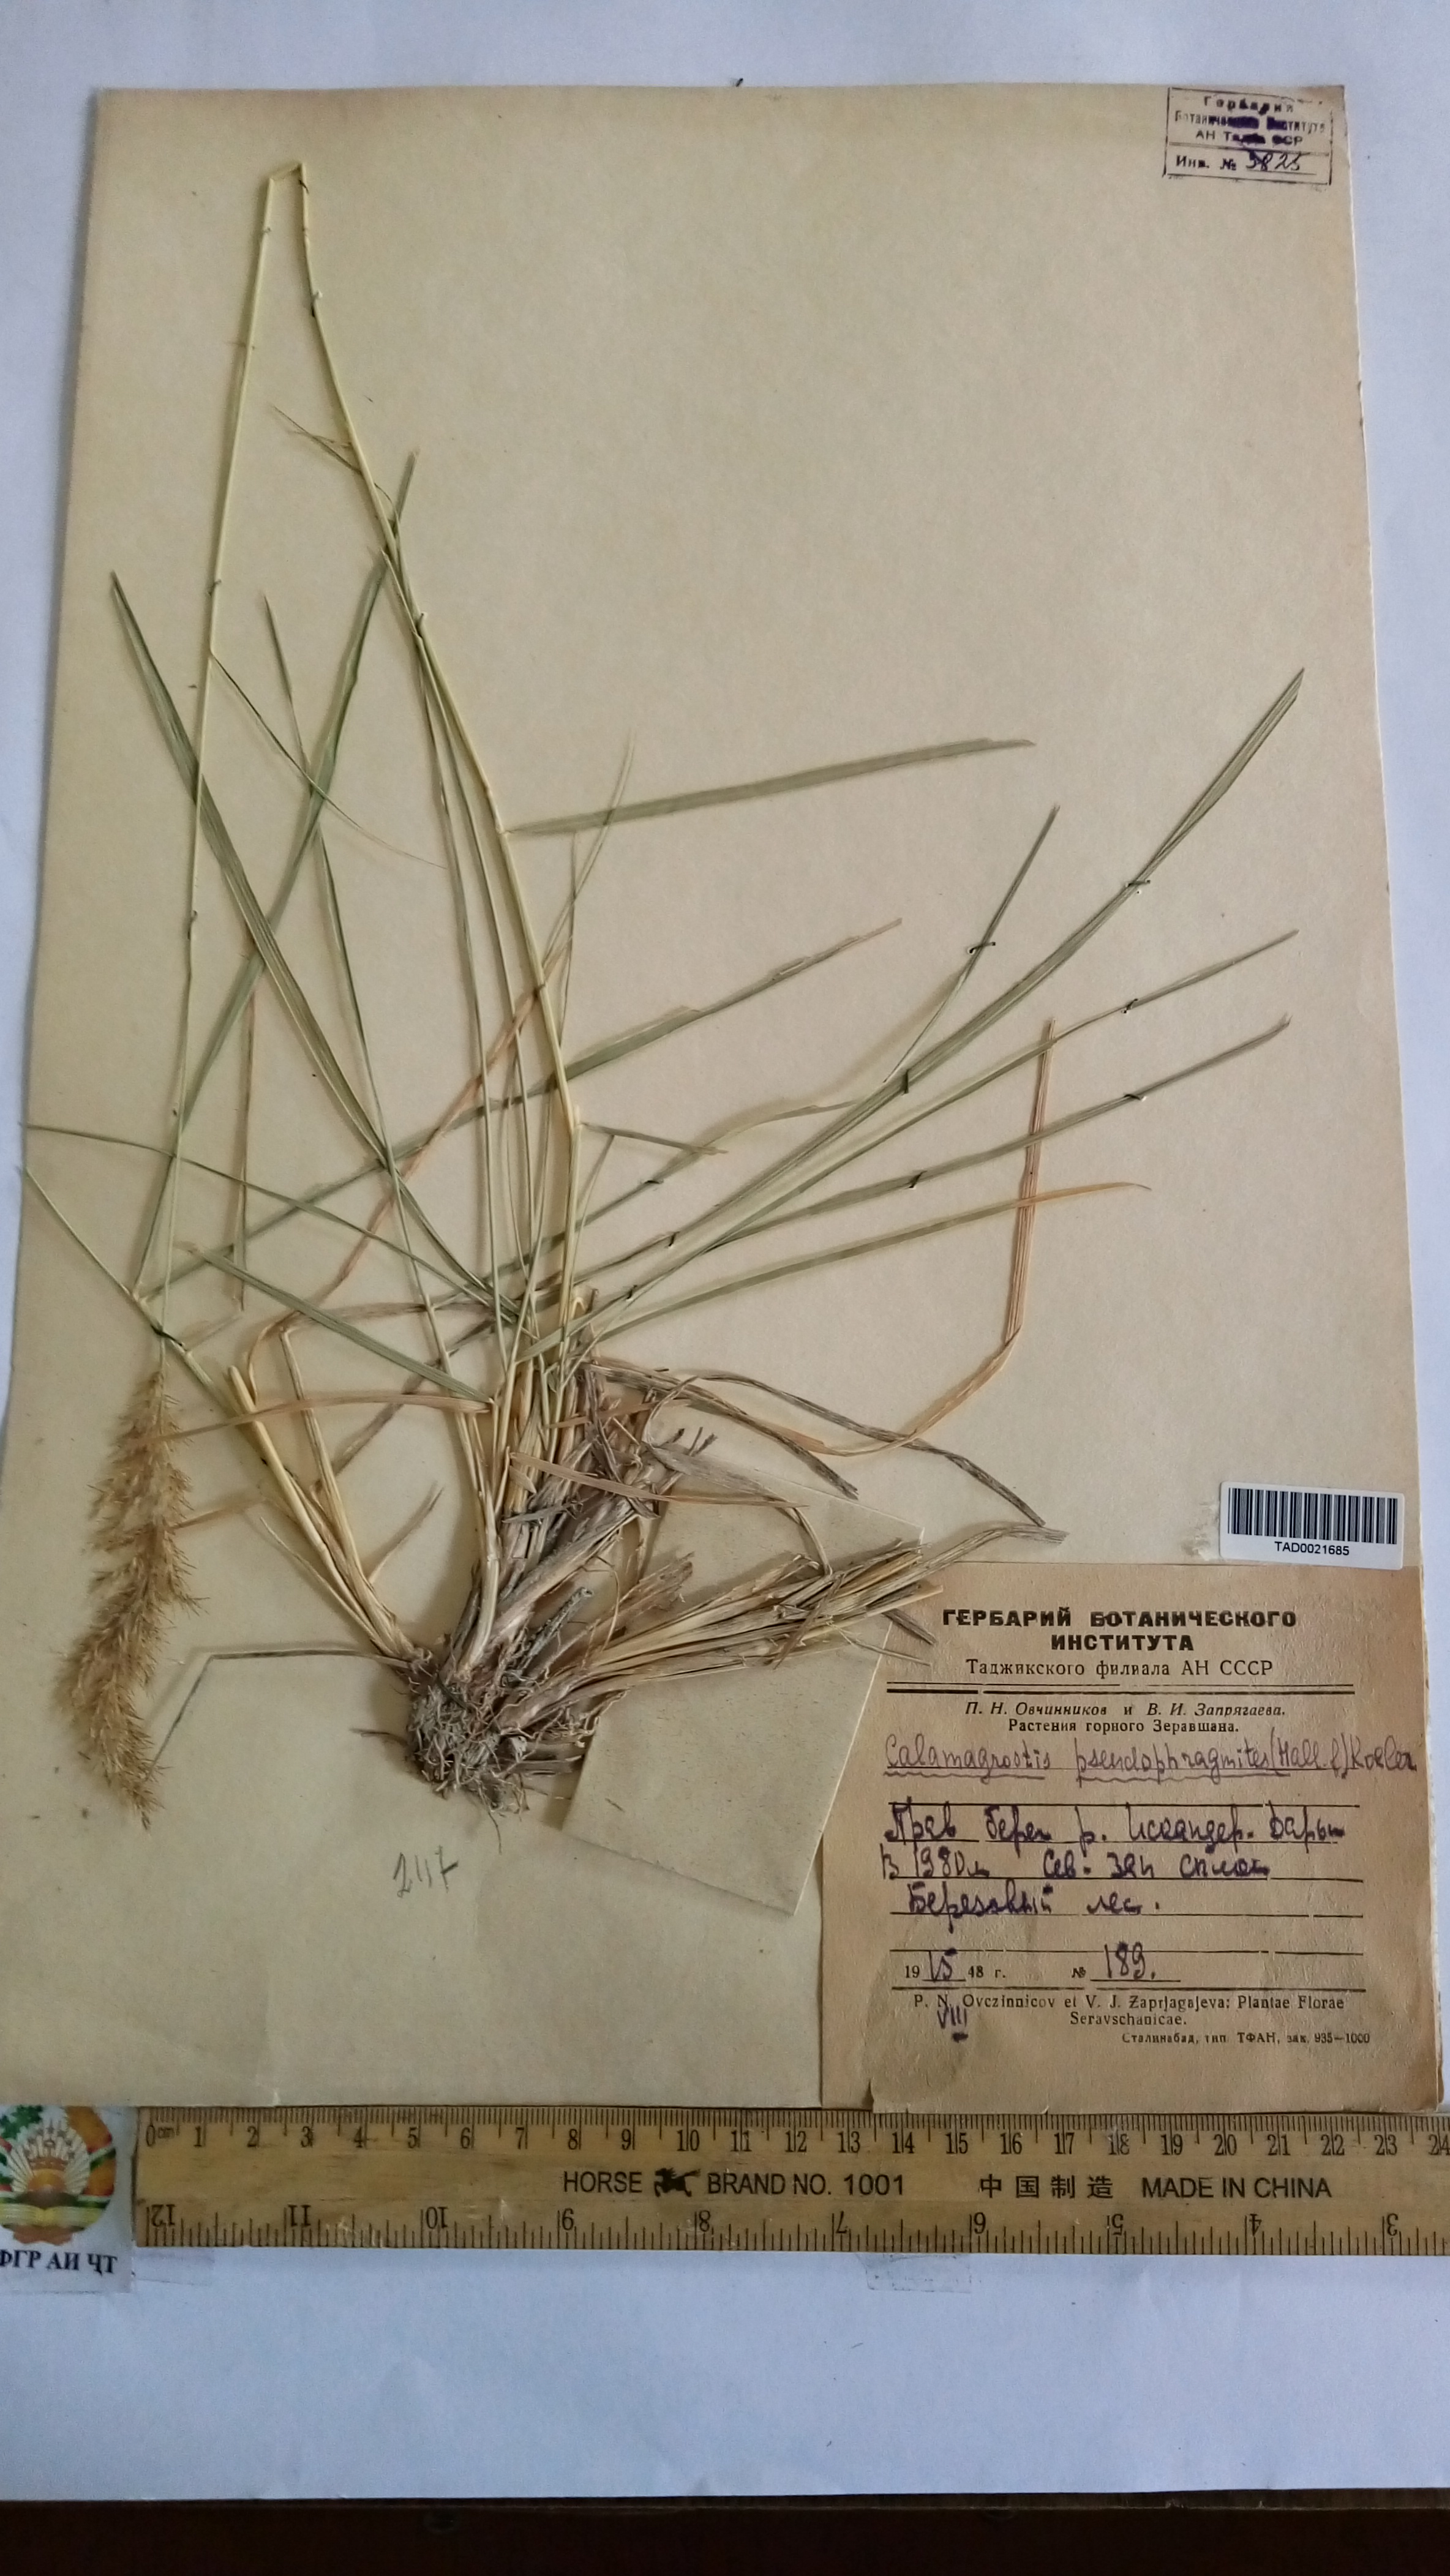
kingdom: Plantae
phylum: Tracheophyta
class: Liliopsida
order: Poales
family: Poaceae
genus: Calamagrostis
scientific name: Calamagrostis pseudophragmites
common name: Coastal small-reed
